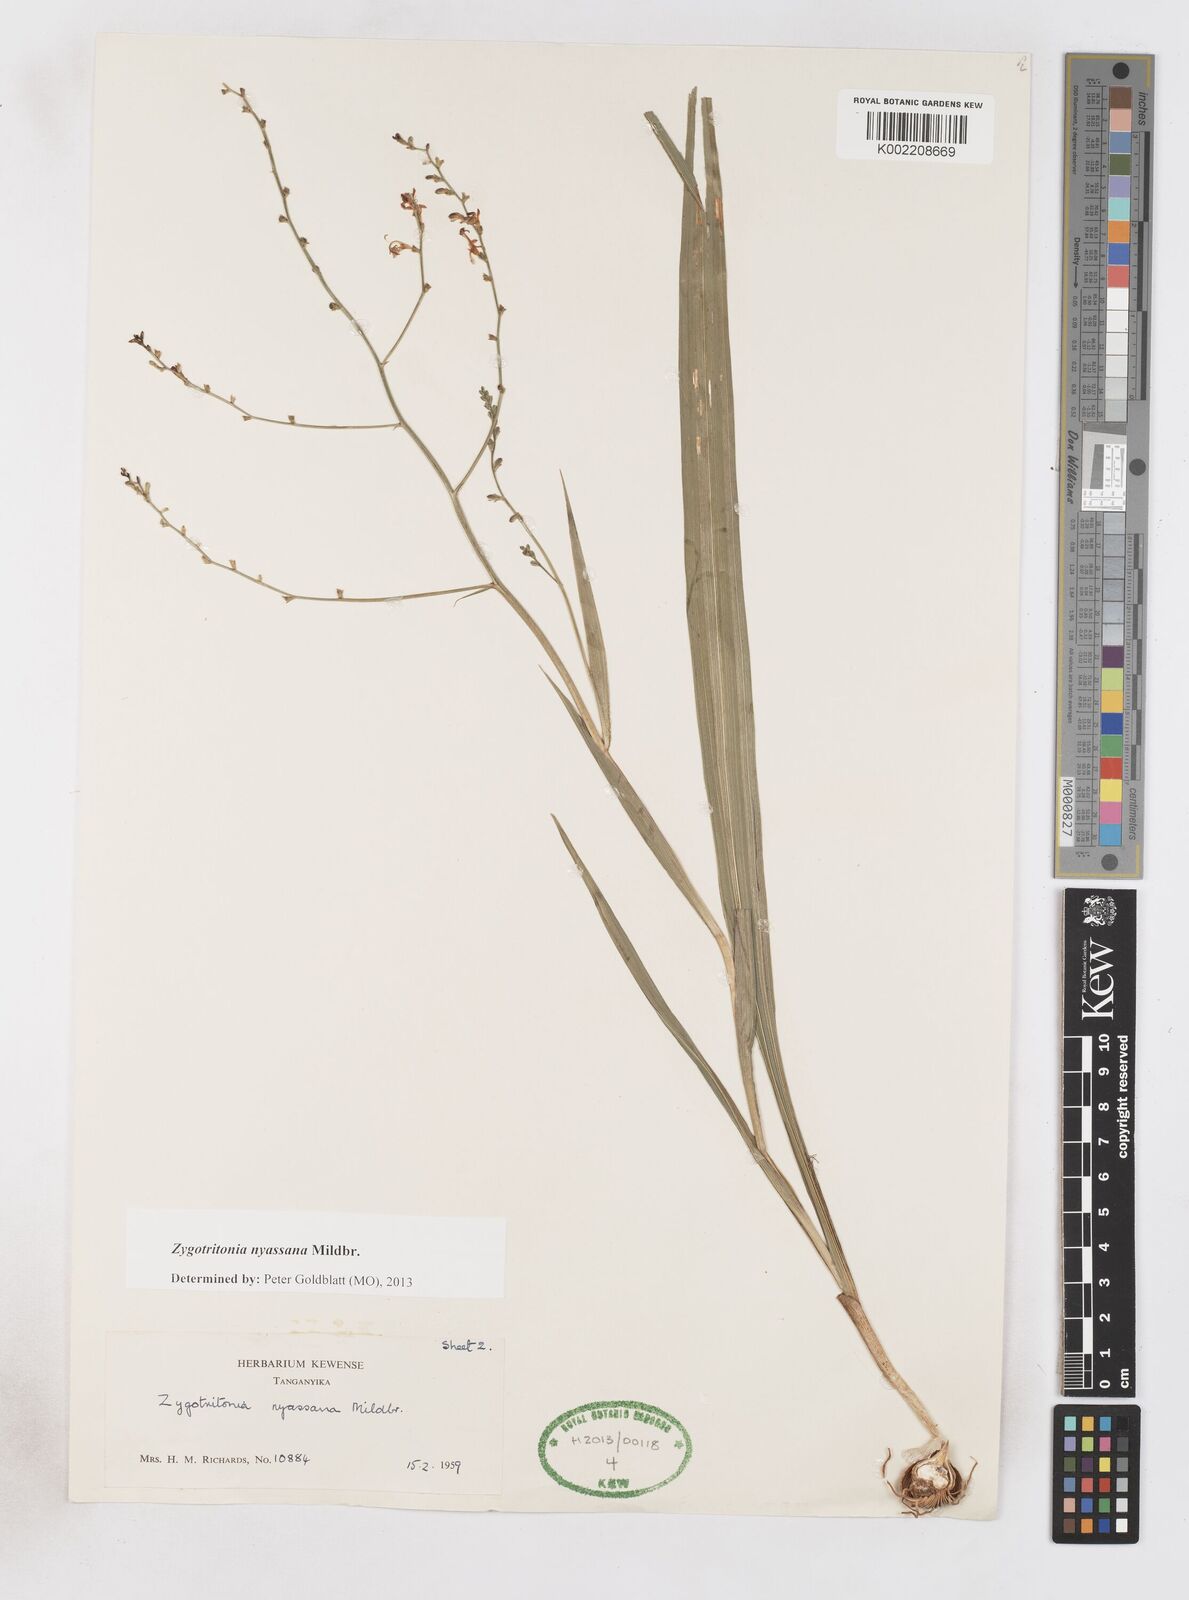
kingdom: Plantae
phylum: Tracheophyta
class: Liliopsida
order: Asparagales
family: Iridaceae
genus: Zygotritonia
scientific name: Zygotritonia nyassana
